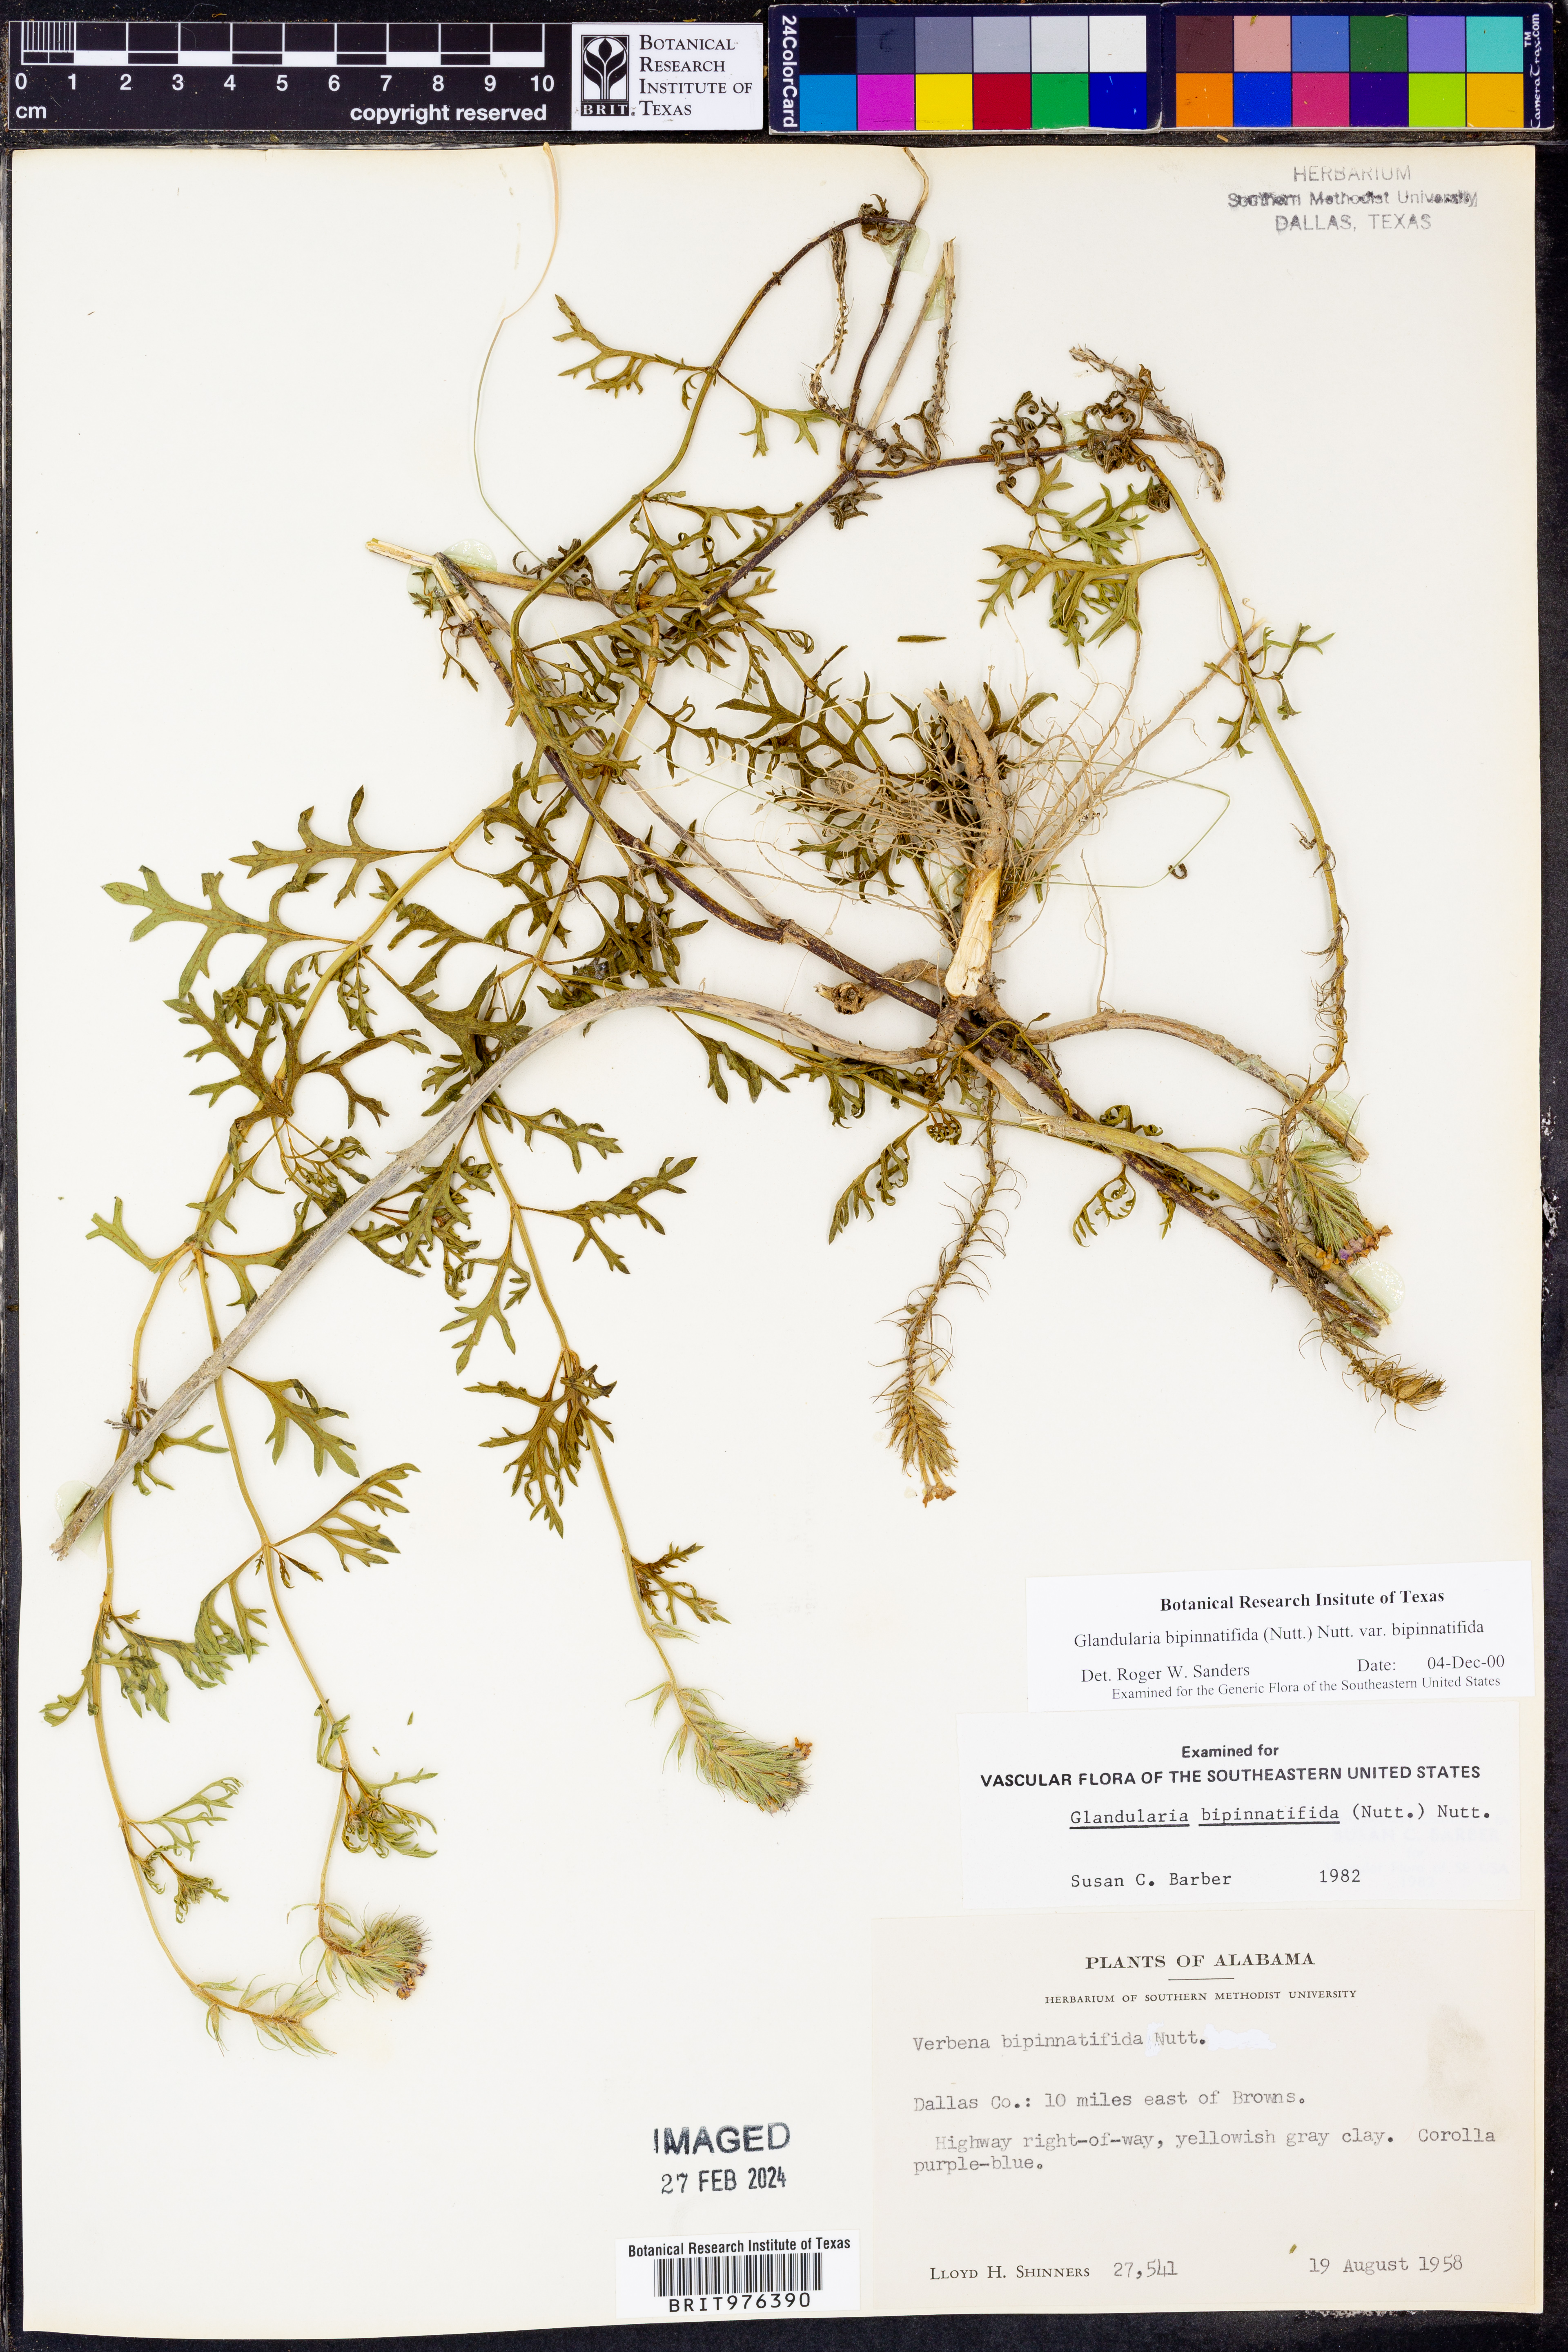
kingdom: Plantae
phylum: Tracheophyta
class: Magnoliopsida
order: Lamiales
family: Verbenaceae
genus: Verbena
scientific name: Verbena bipinnatifida
